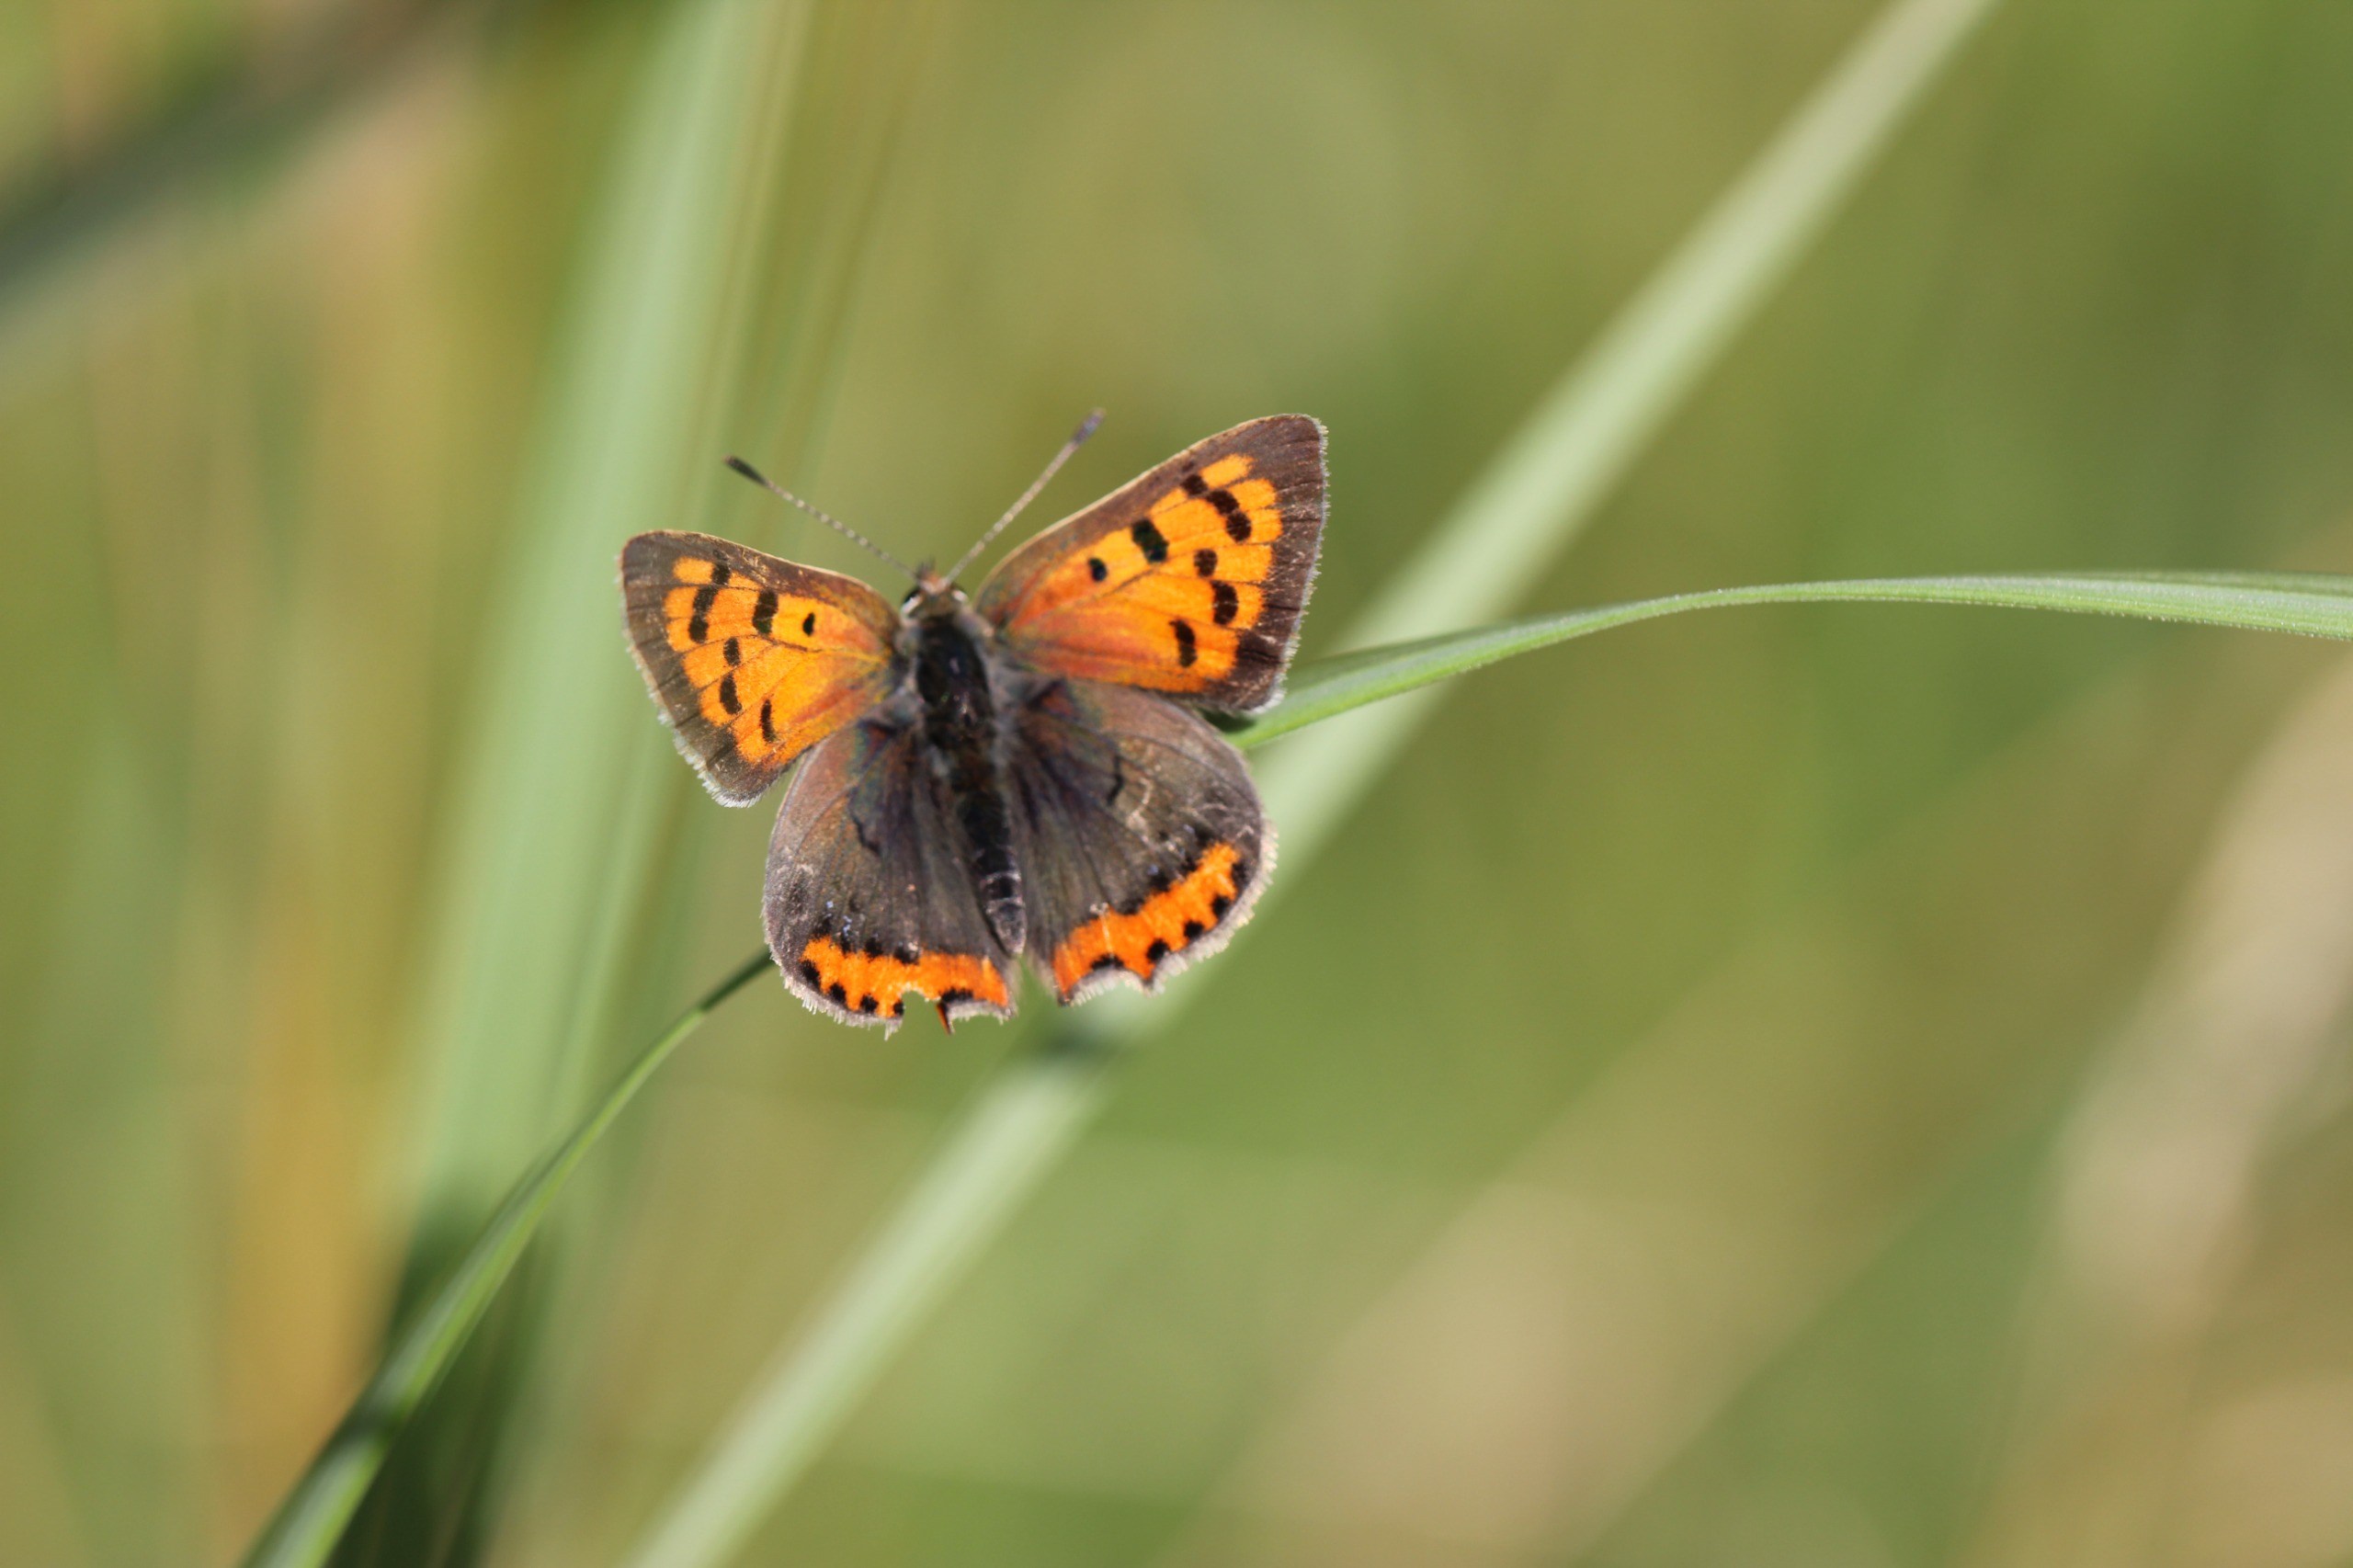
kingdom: Animalia
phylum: Arthropoda
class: Insecta
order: Lepidoptera
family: Lycaenidae
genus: Lycaena
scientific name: Lycaena phlaeas
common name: Lille ildfugl
